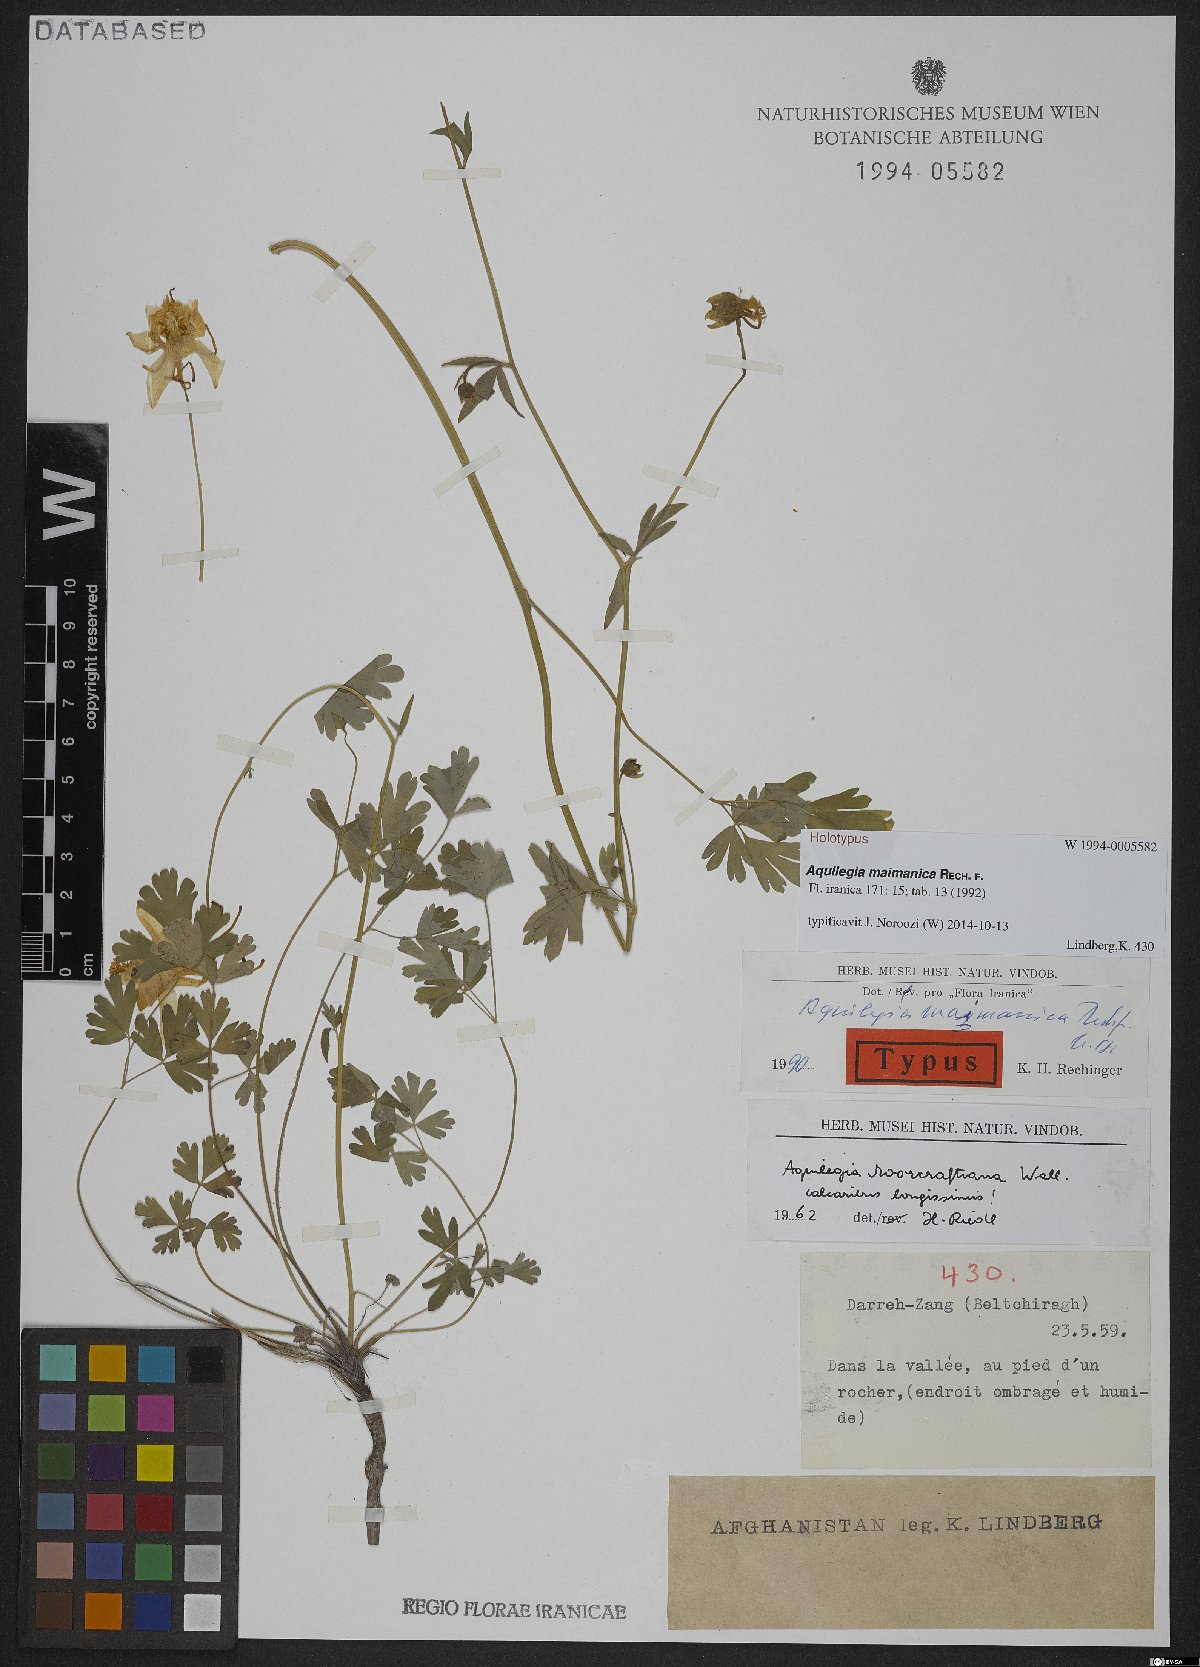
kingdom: Plantae
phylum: Tracheophyta
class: Magnoliopsida
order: Ranunculales
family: Ranunculaceae
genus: Aquilegia
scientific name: Aquilegia maimanica
